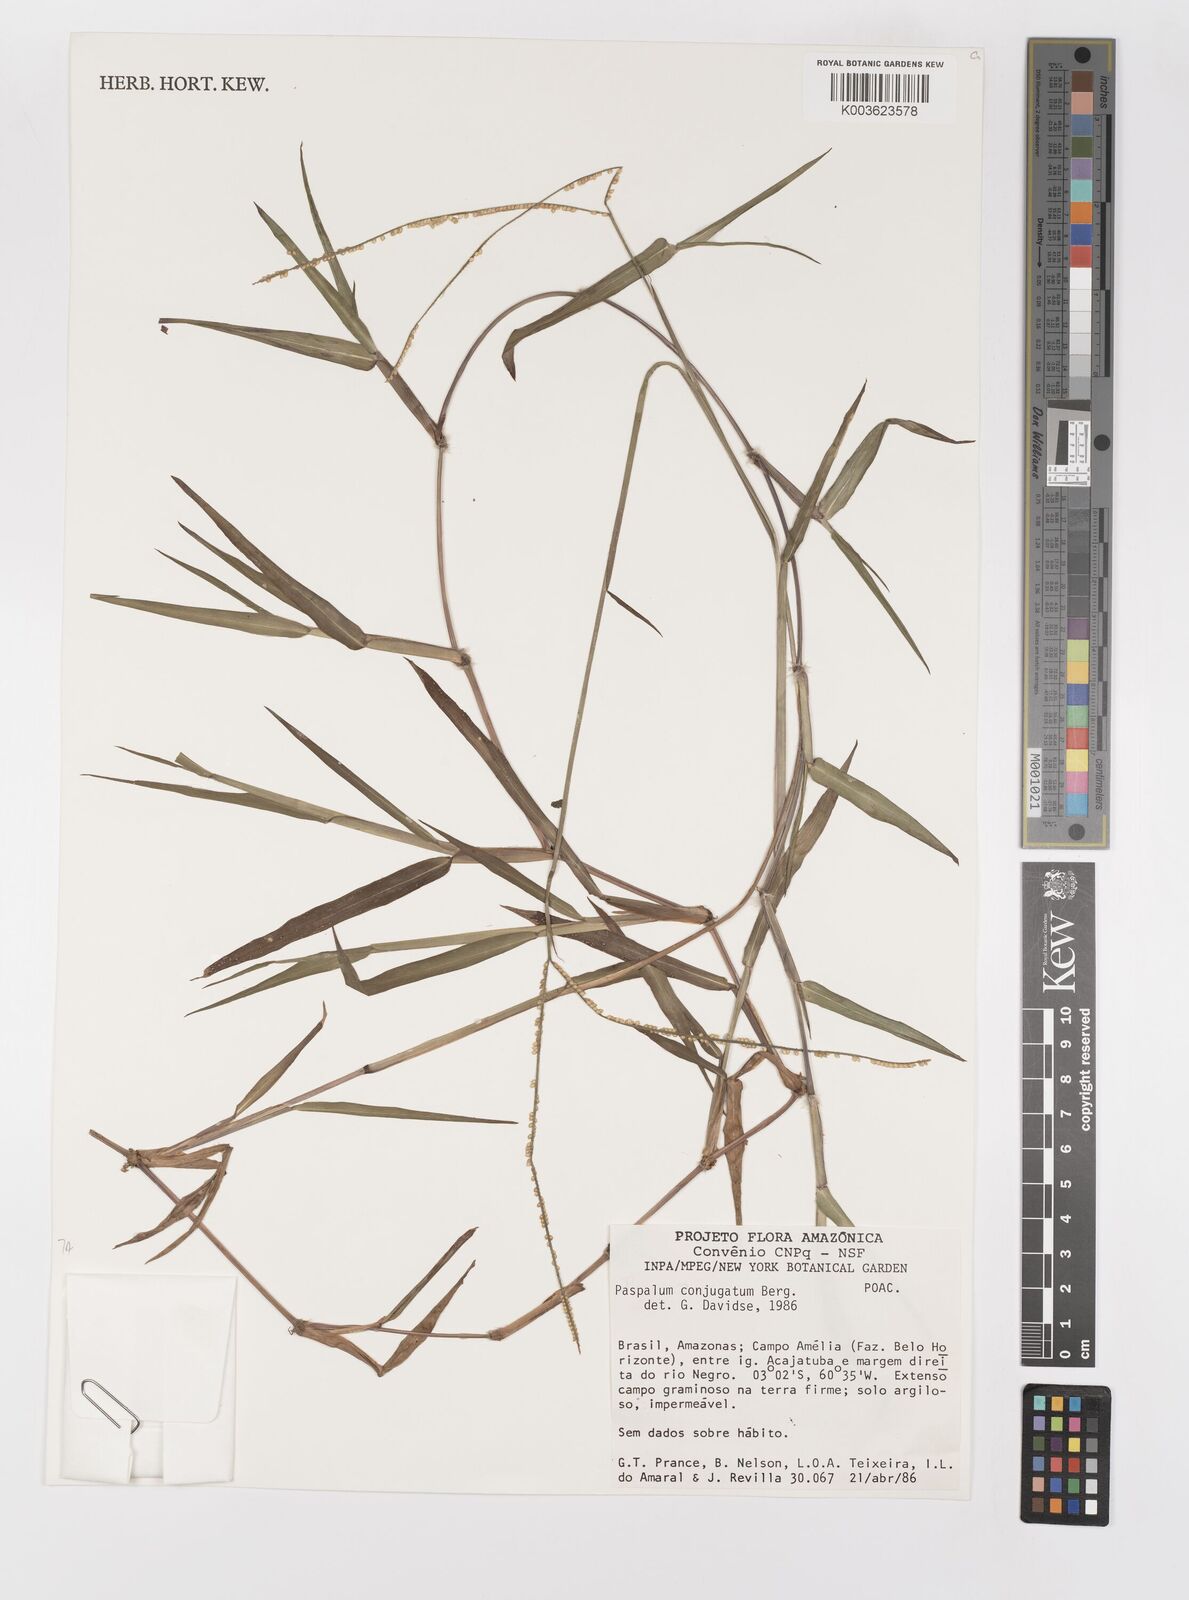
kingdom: Plantae
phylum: Tracheophyta
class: Liliopsida
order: Poales
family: Poaceae
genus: Paspalum
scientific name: Paspalum conjugatum
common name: Hilograss
